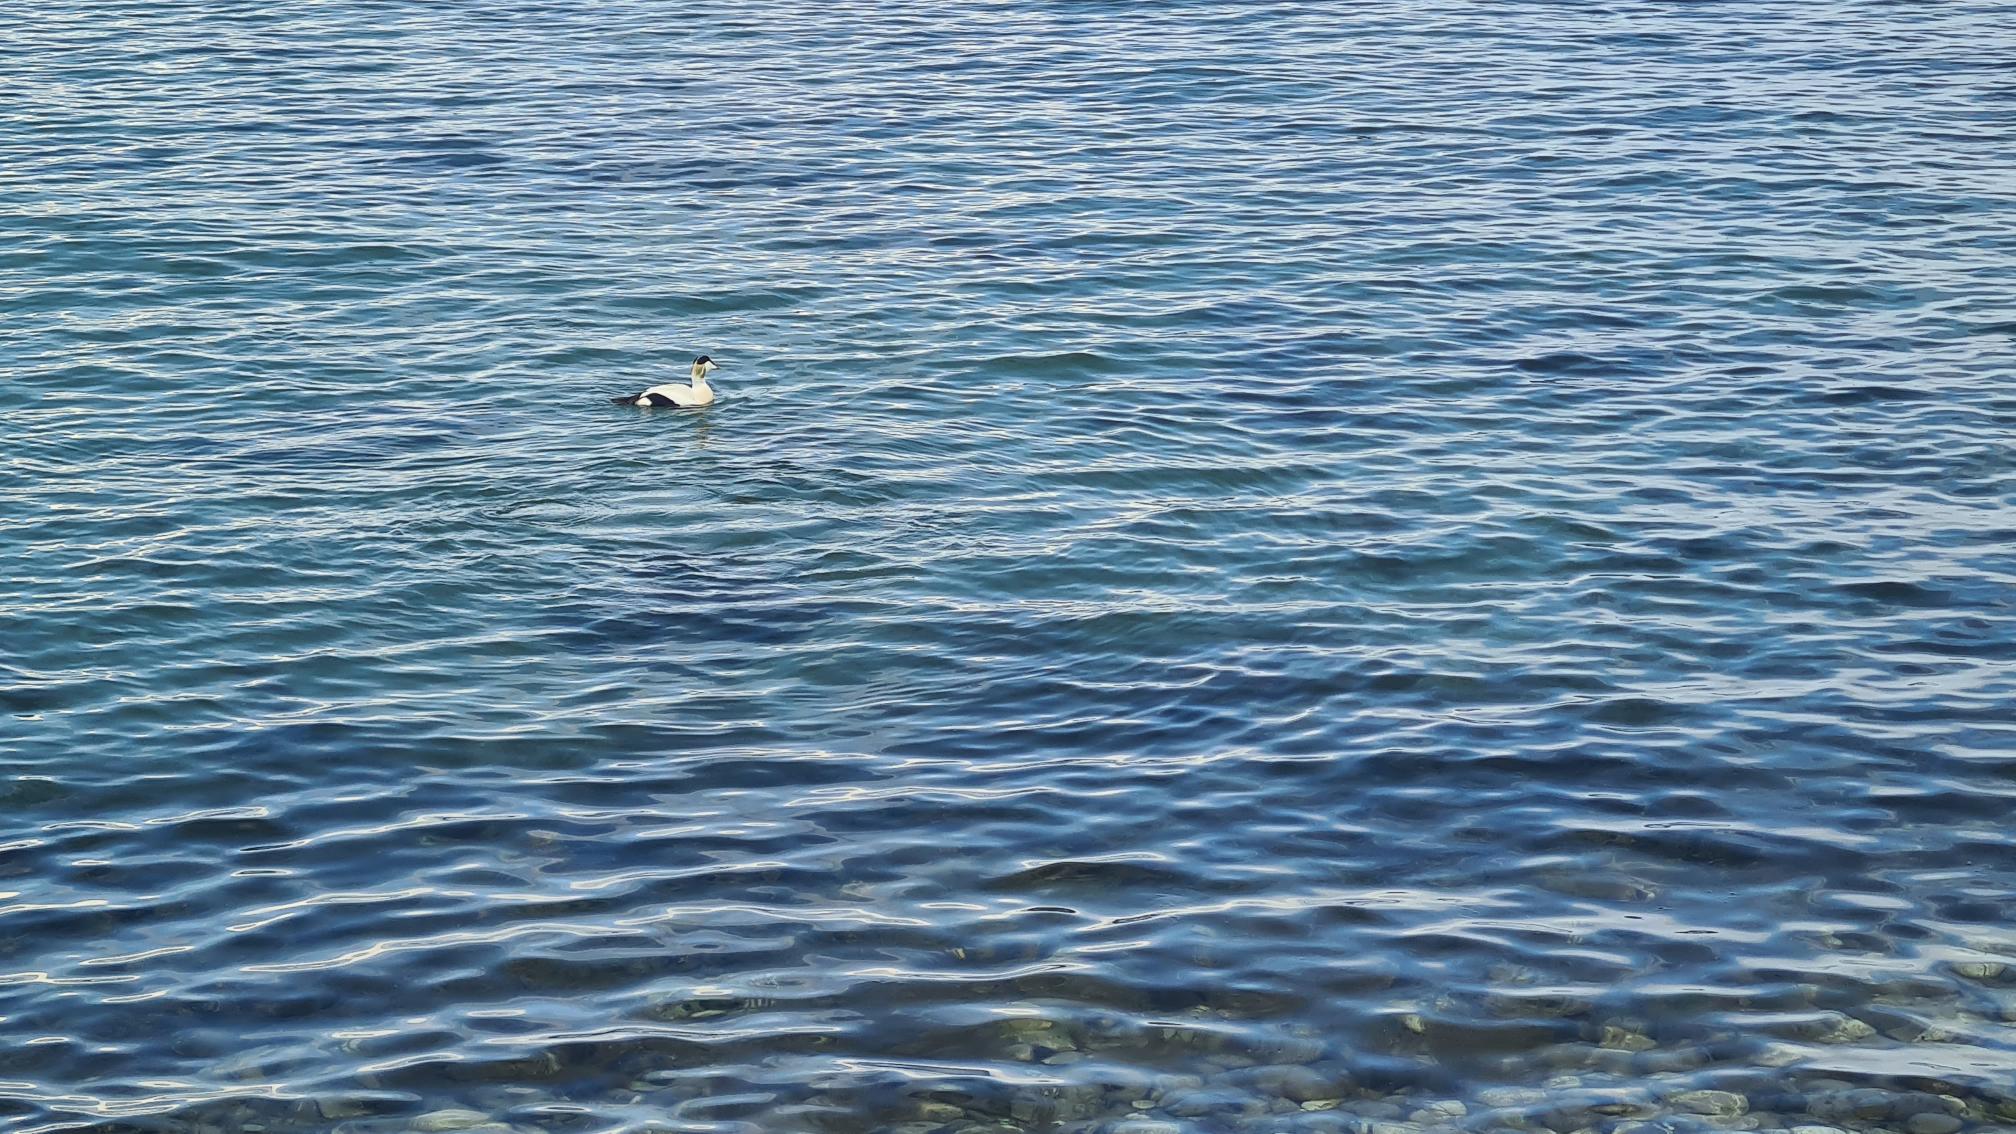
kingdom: Animalia
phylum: Chordata
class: Aves
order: Anseriformes
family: Anatidae
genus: Somateria
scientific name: Somateria mollissima
